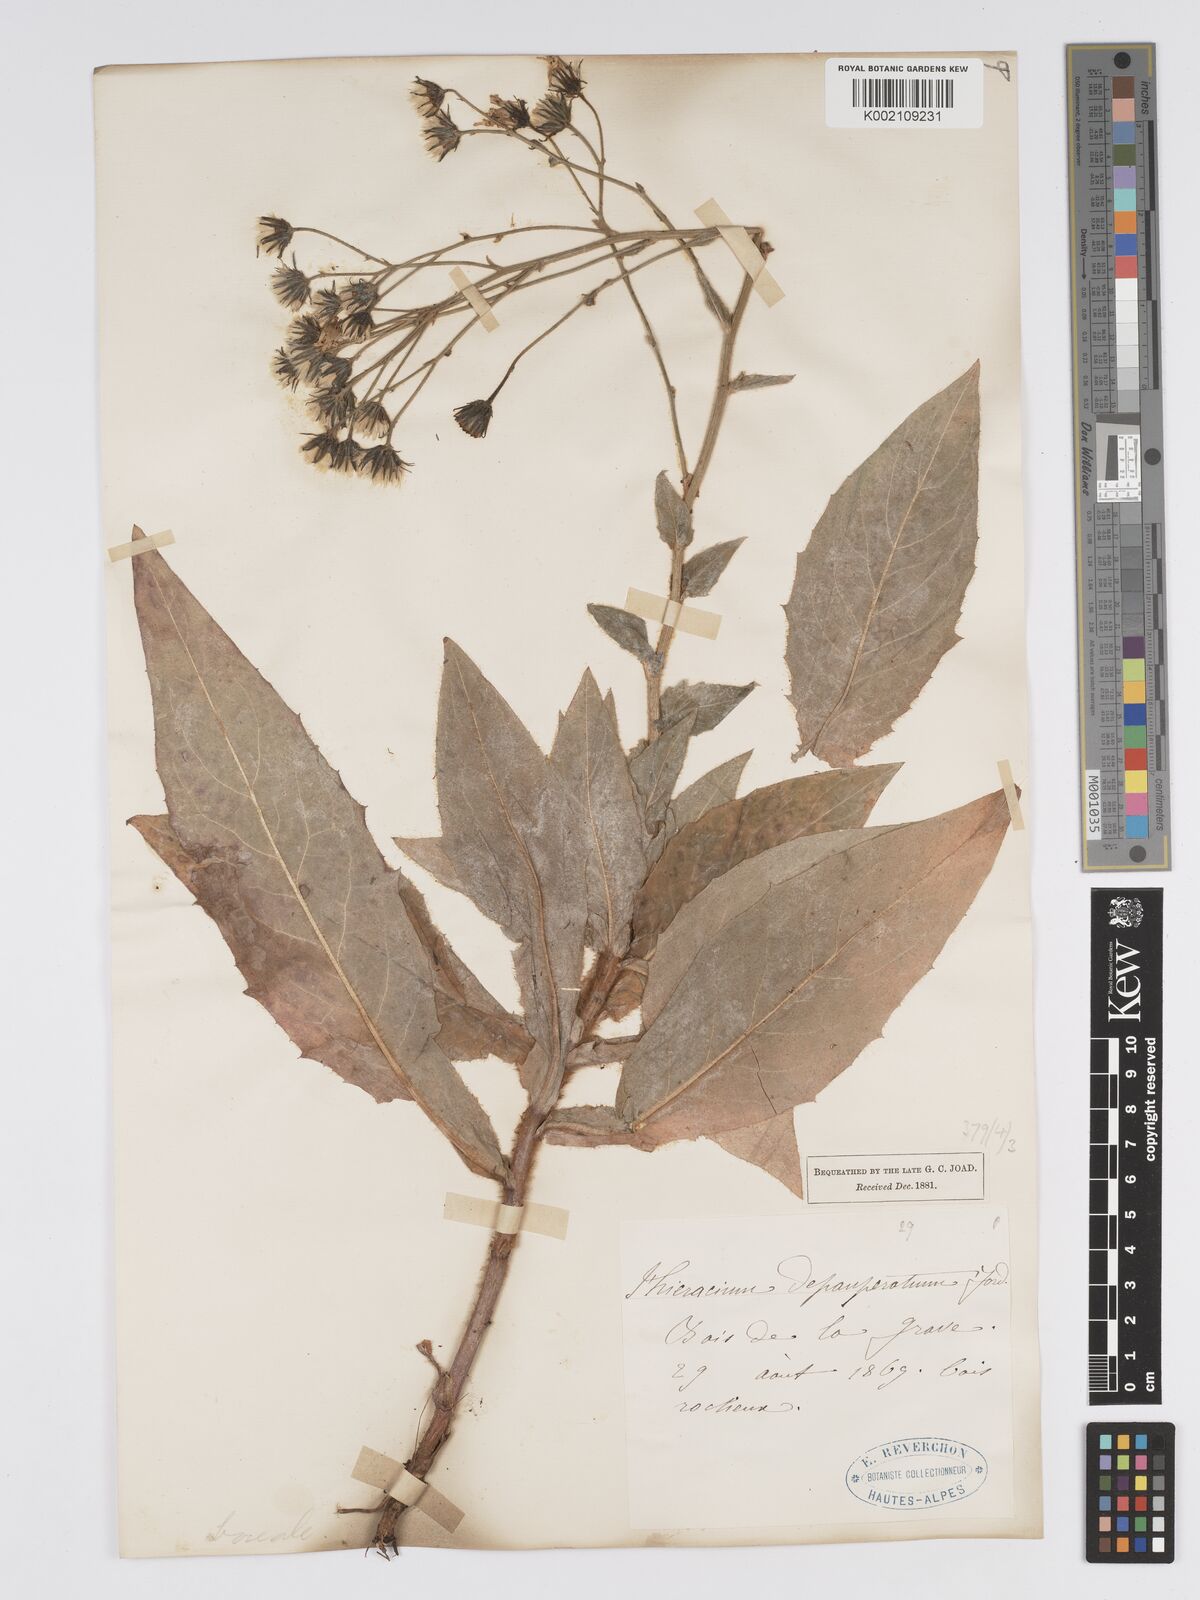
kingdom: Plantae
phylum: Tracheophyta
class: Magnoliopsida
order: Asterales
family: Asteraceae
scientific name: Asteraceae
